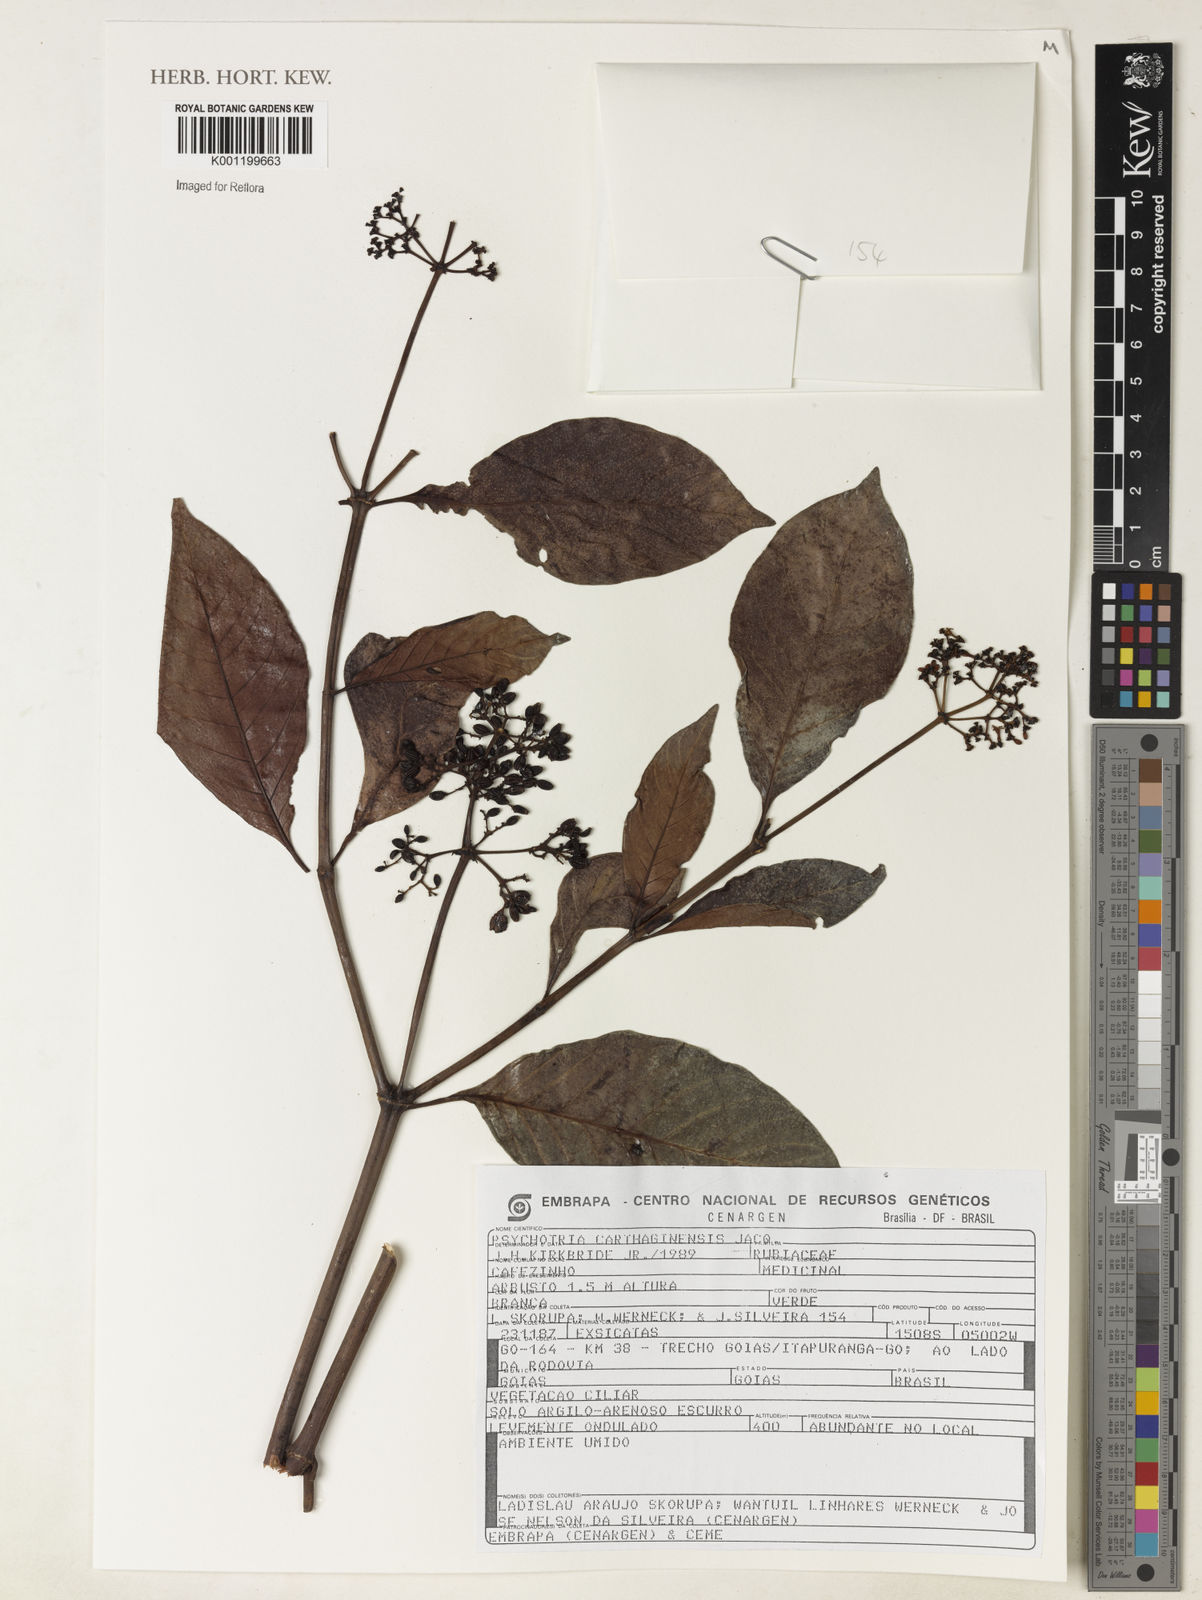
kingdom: Plantae
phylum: Tracheophyta
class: Magnoliopsida
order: Gentianales
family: Rubiaceae
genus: Psychotria
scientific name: Psychotria carthagenensis
